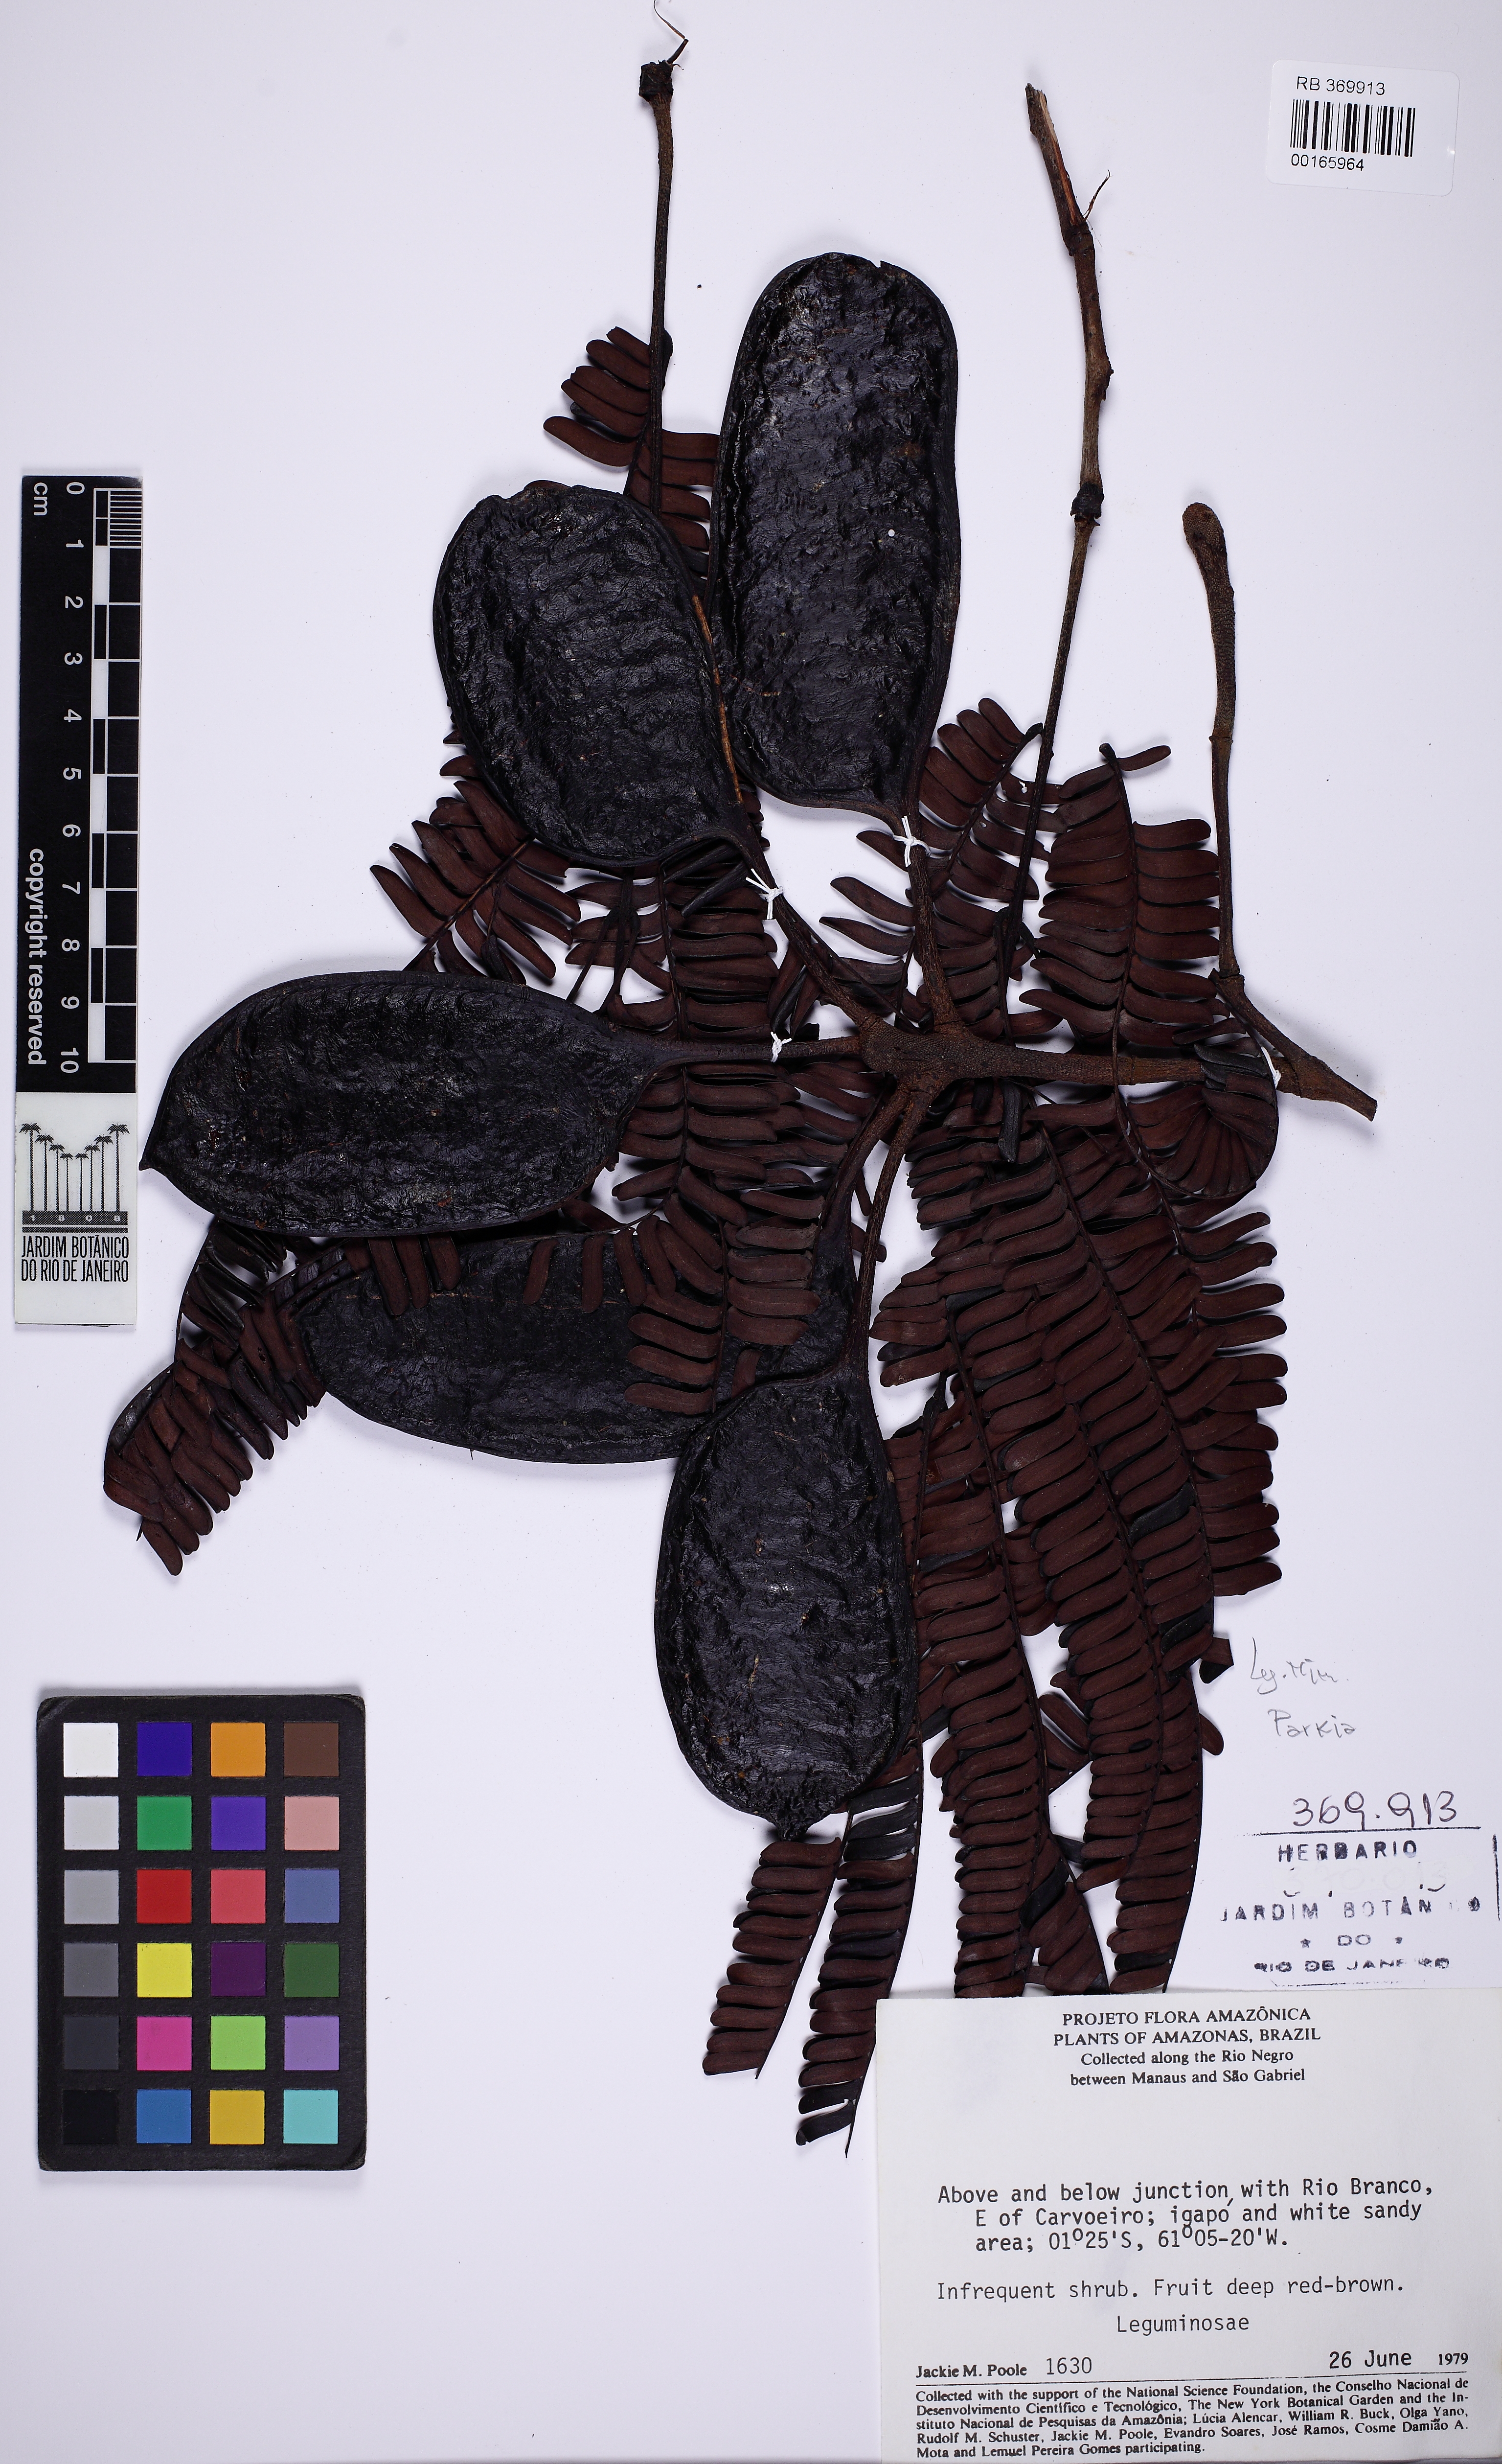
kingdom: Plantae
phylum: Tracheophyta
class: Magnoliopsida
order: Fabales
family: Fabaceae
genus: Parkia
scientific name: Parkia
